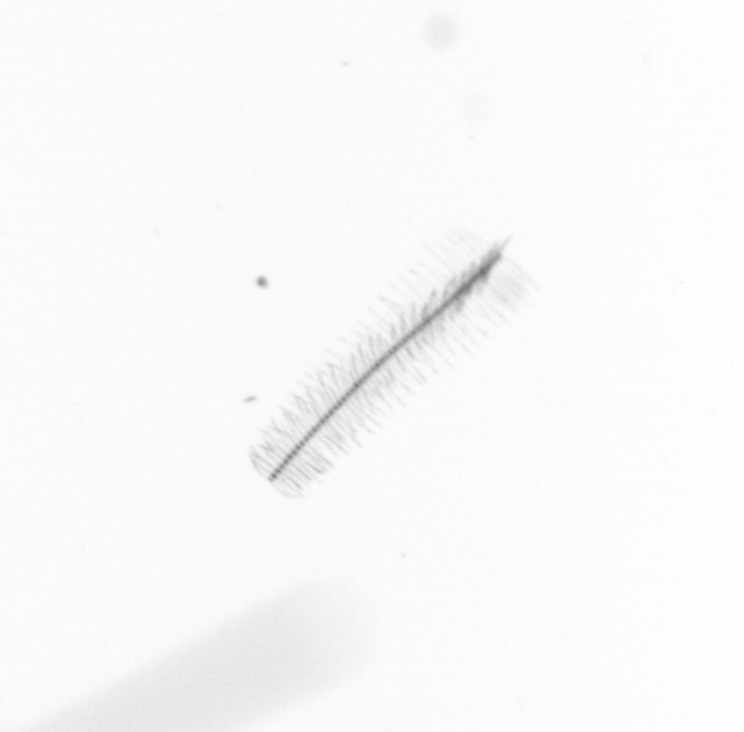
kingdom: Chromista
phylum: Ochrophyta
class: Bacillariophyceae
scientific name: Bacillariophyceae
